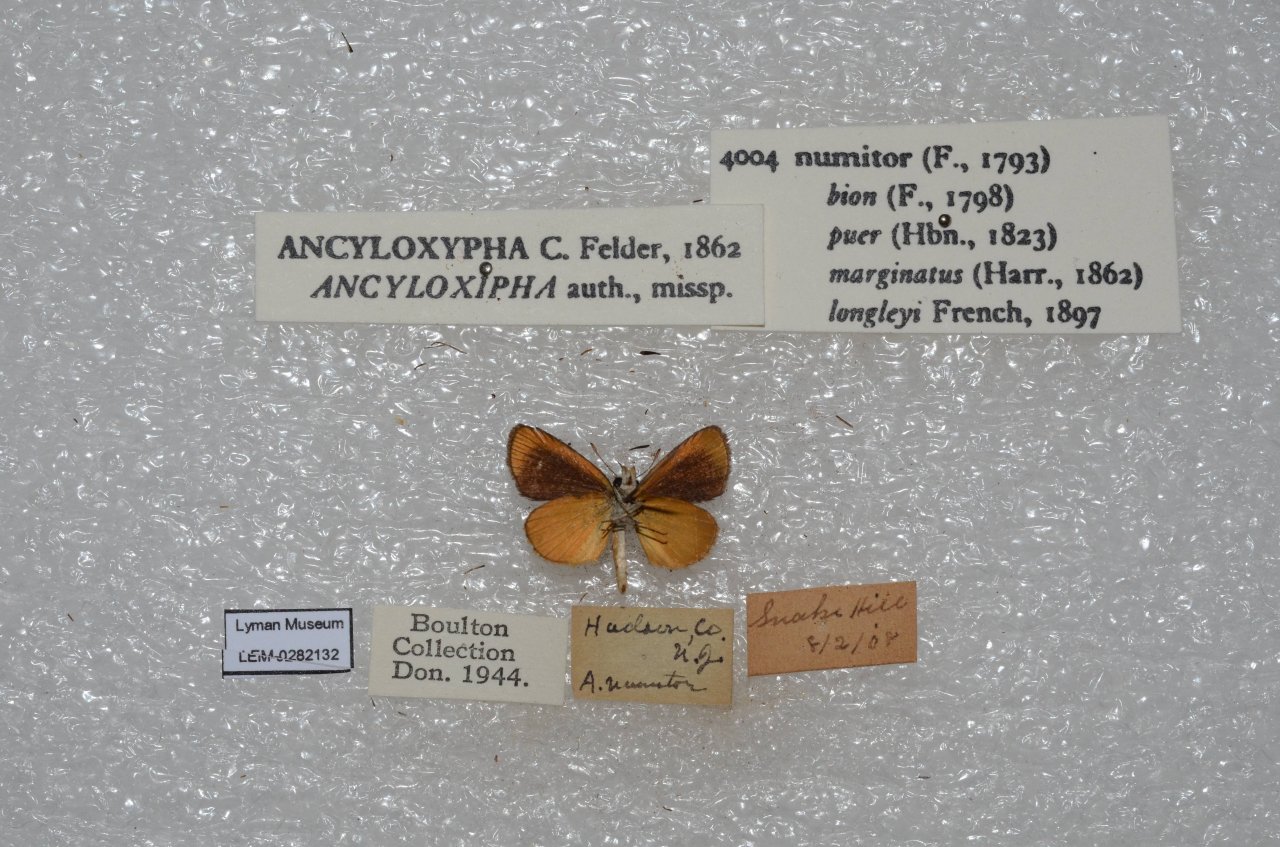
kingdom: Animalia
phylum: Arthropoda
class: Insecta
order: Lepidoptera
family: Hesperiidae
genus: Ancyloxypha
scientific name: Ancyloxypha numitor
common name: Least Skipper
